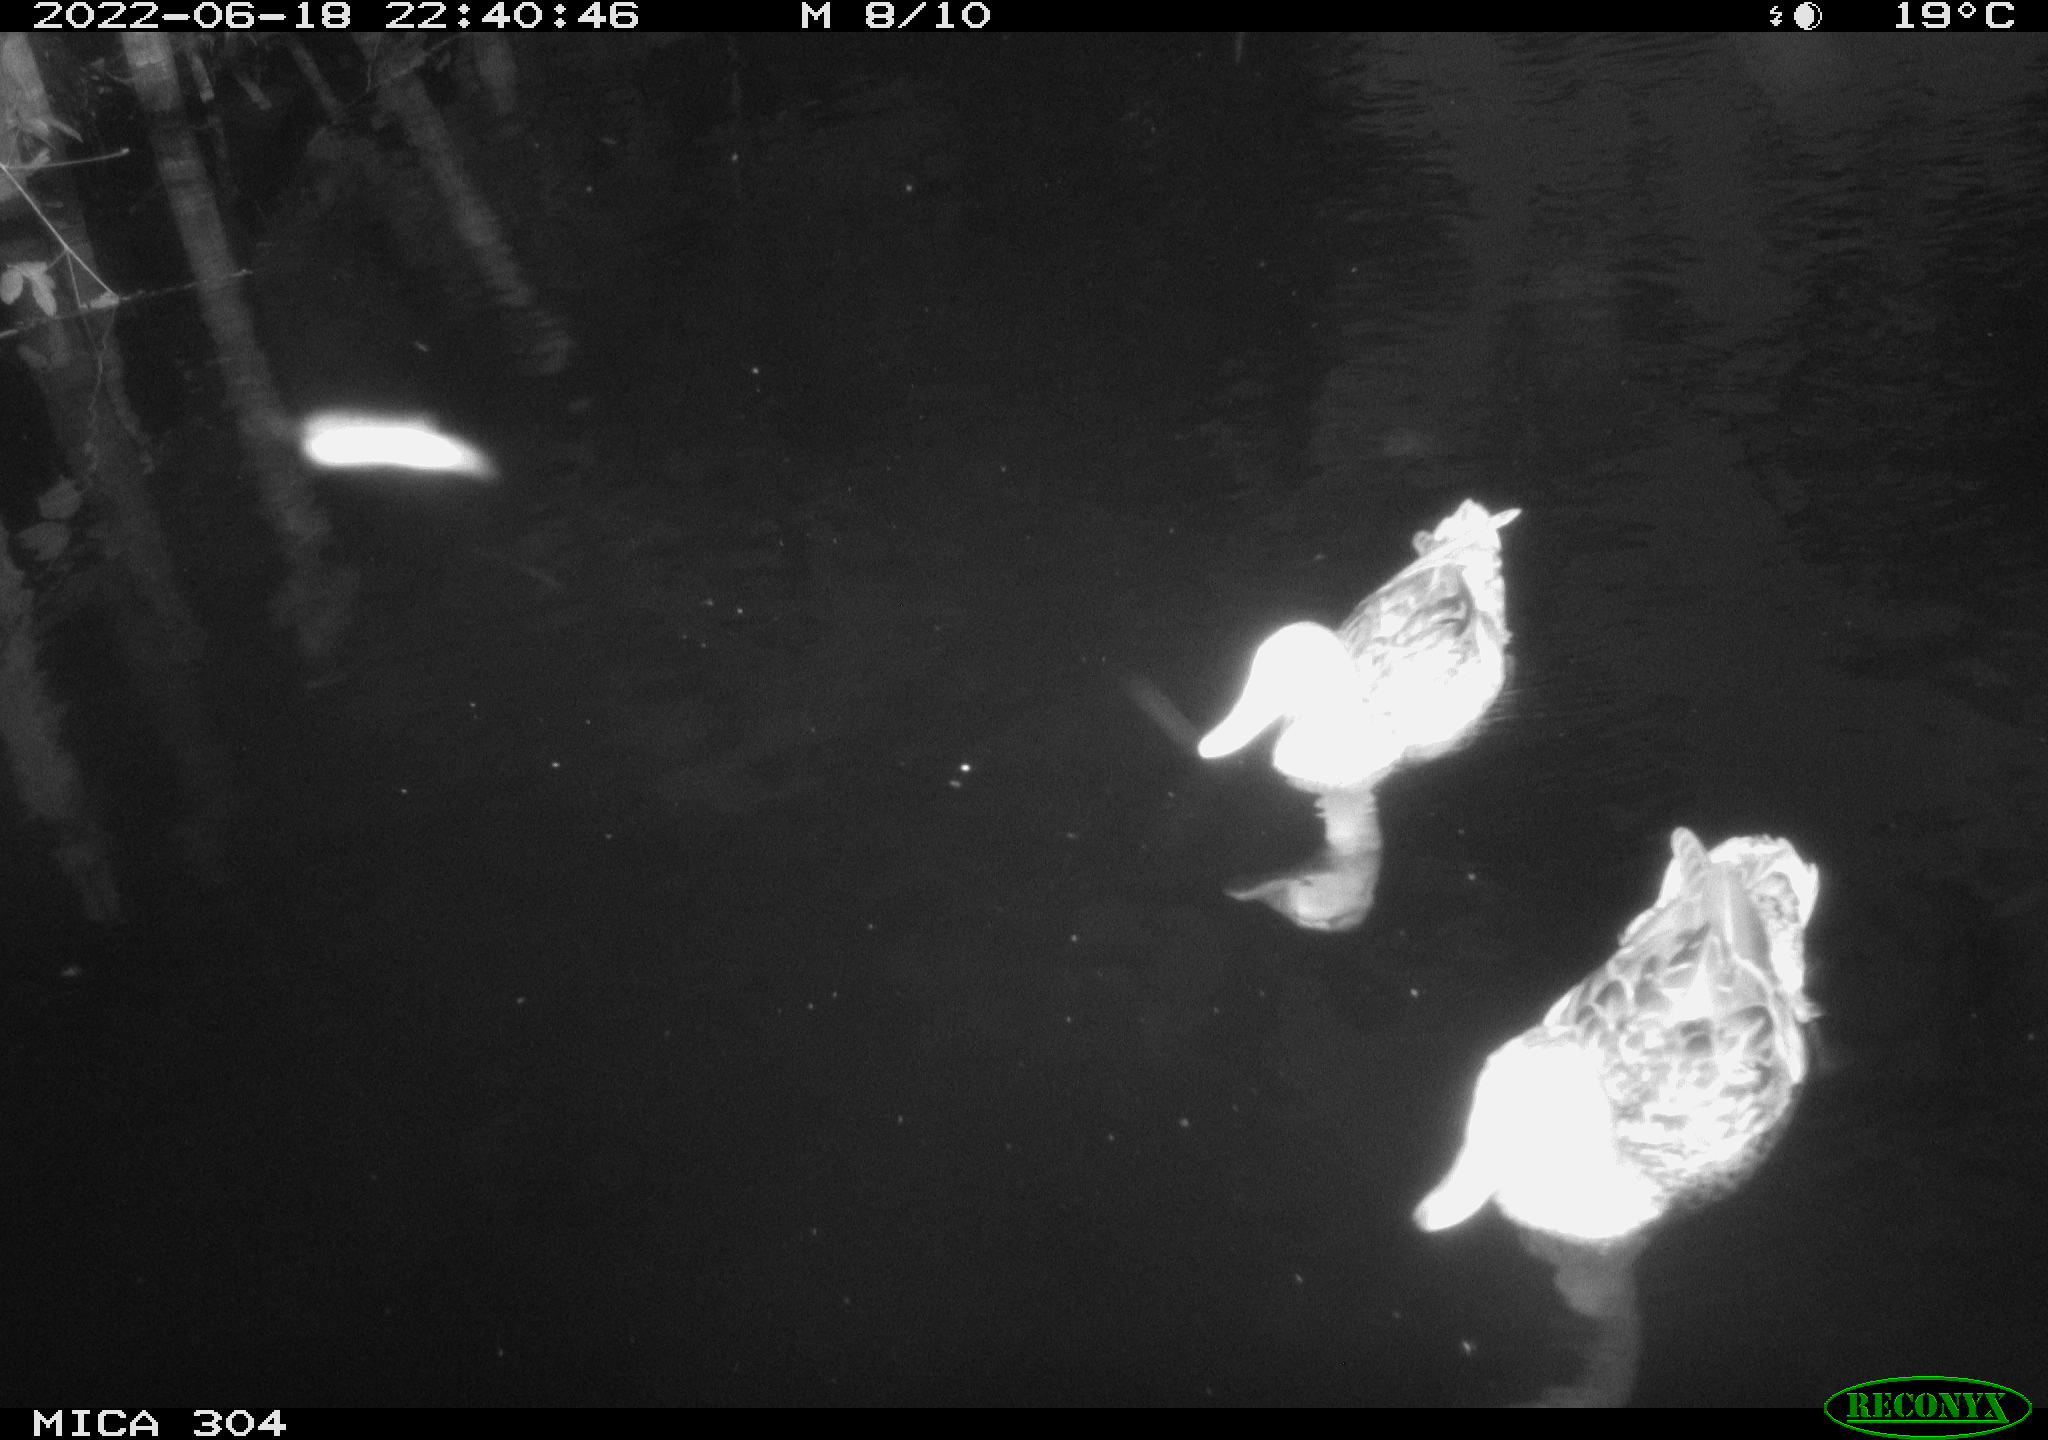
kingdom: Animalia
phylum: Chordata
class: Aves
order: Anseriformes
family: Anatidae
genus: Anas
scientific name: Anas platyrhynchos
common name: Mallard
